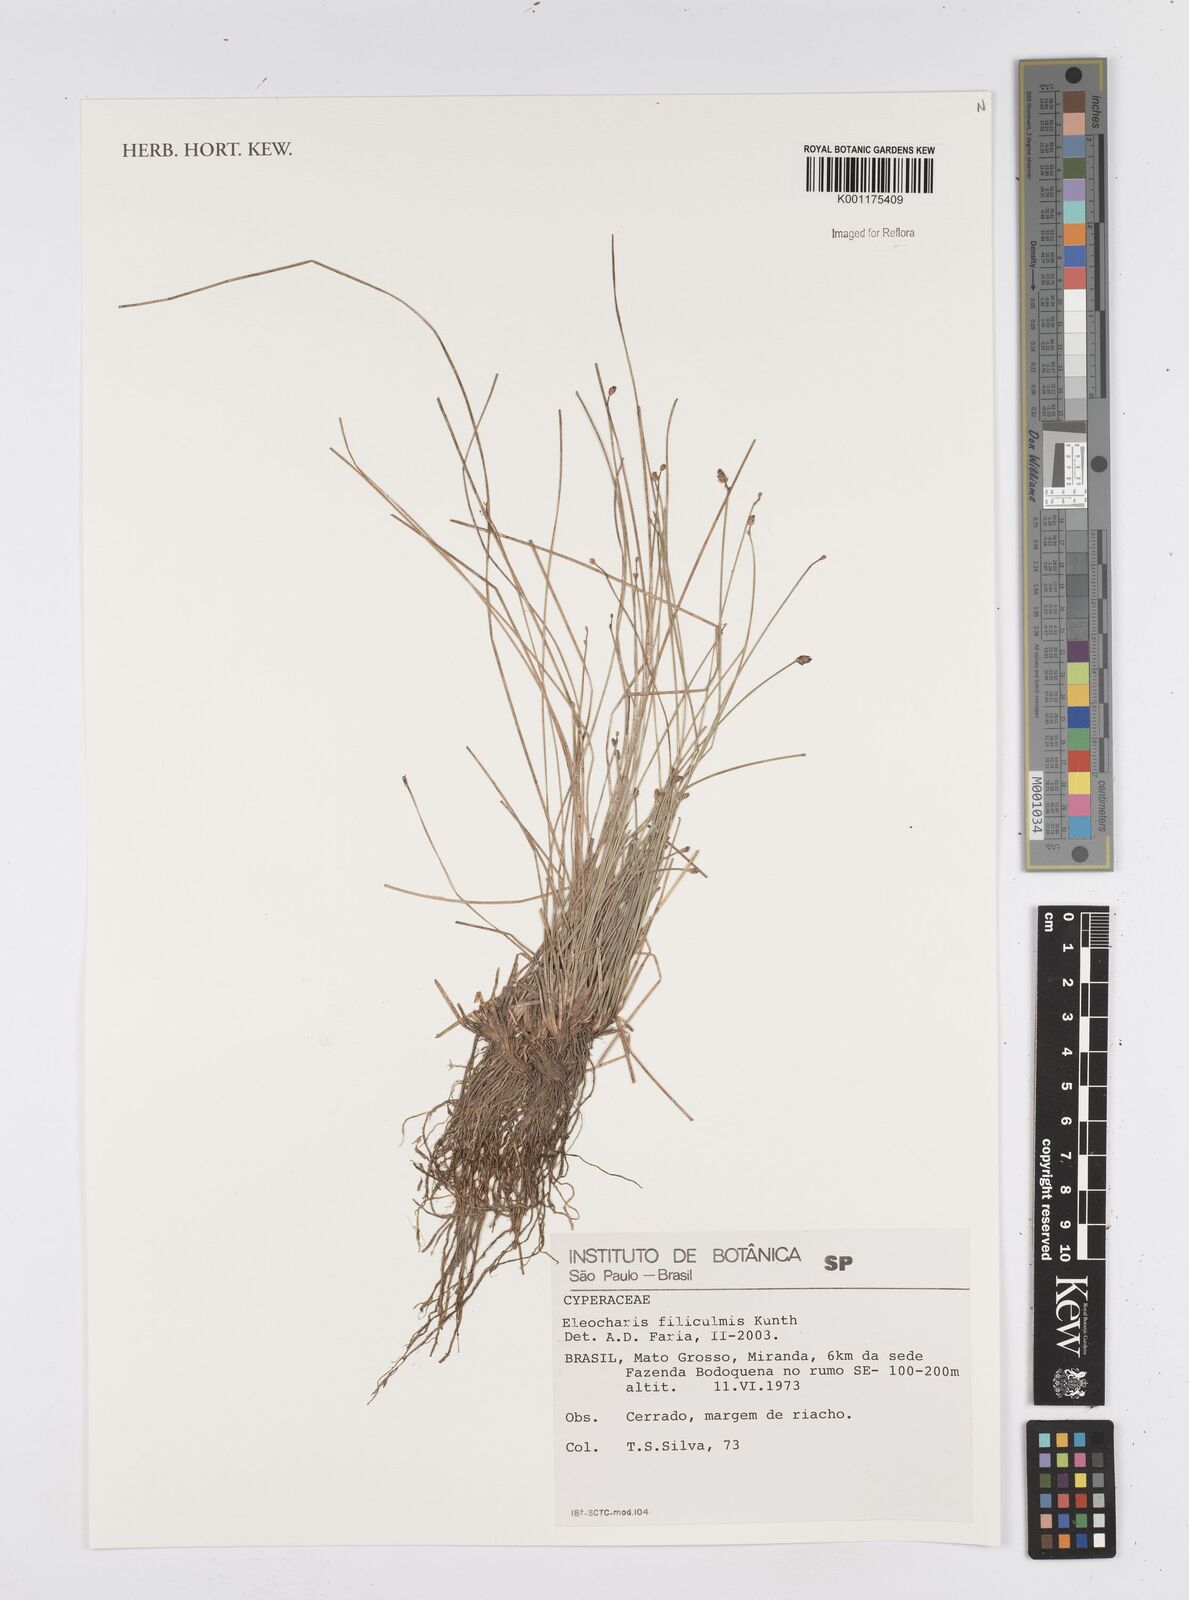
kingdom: Plantae
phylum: Tracheophyta
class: Liliopsida
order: Poales
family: Cyperaceae
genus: Eleocharis
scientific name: Eleocharis filiculmis
